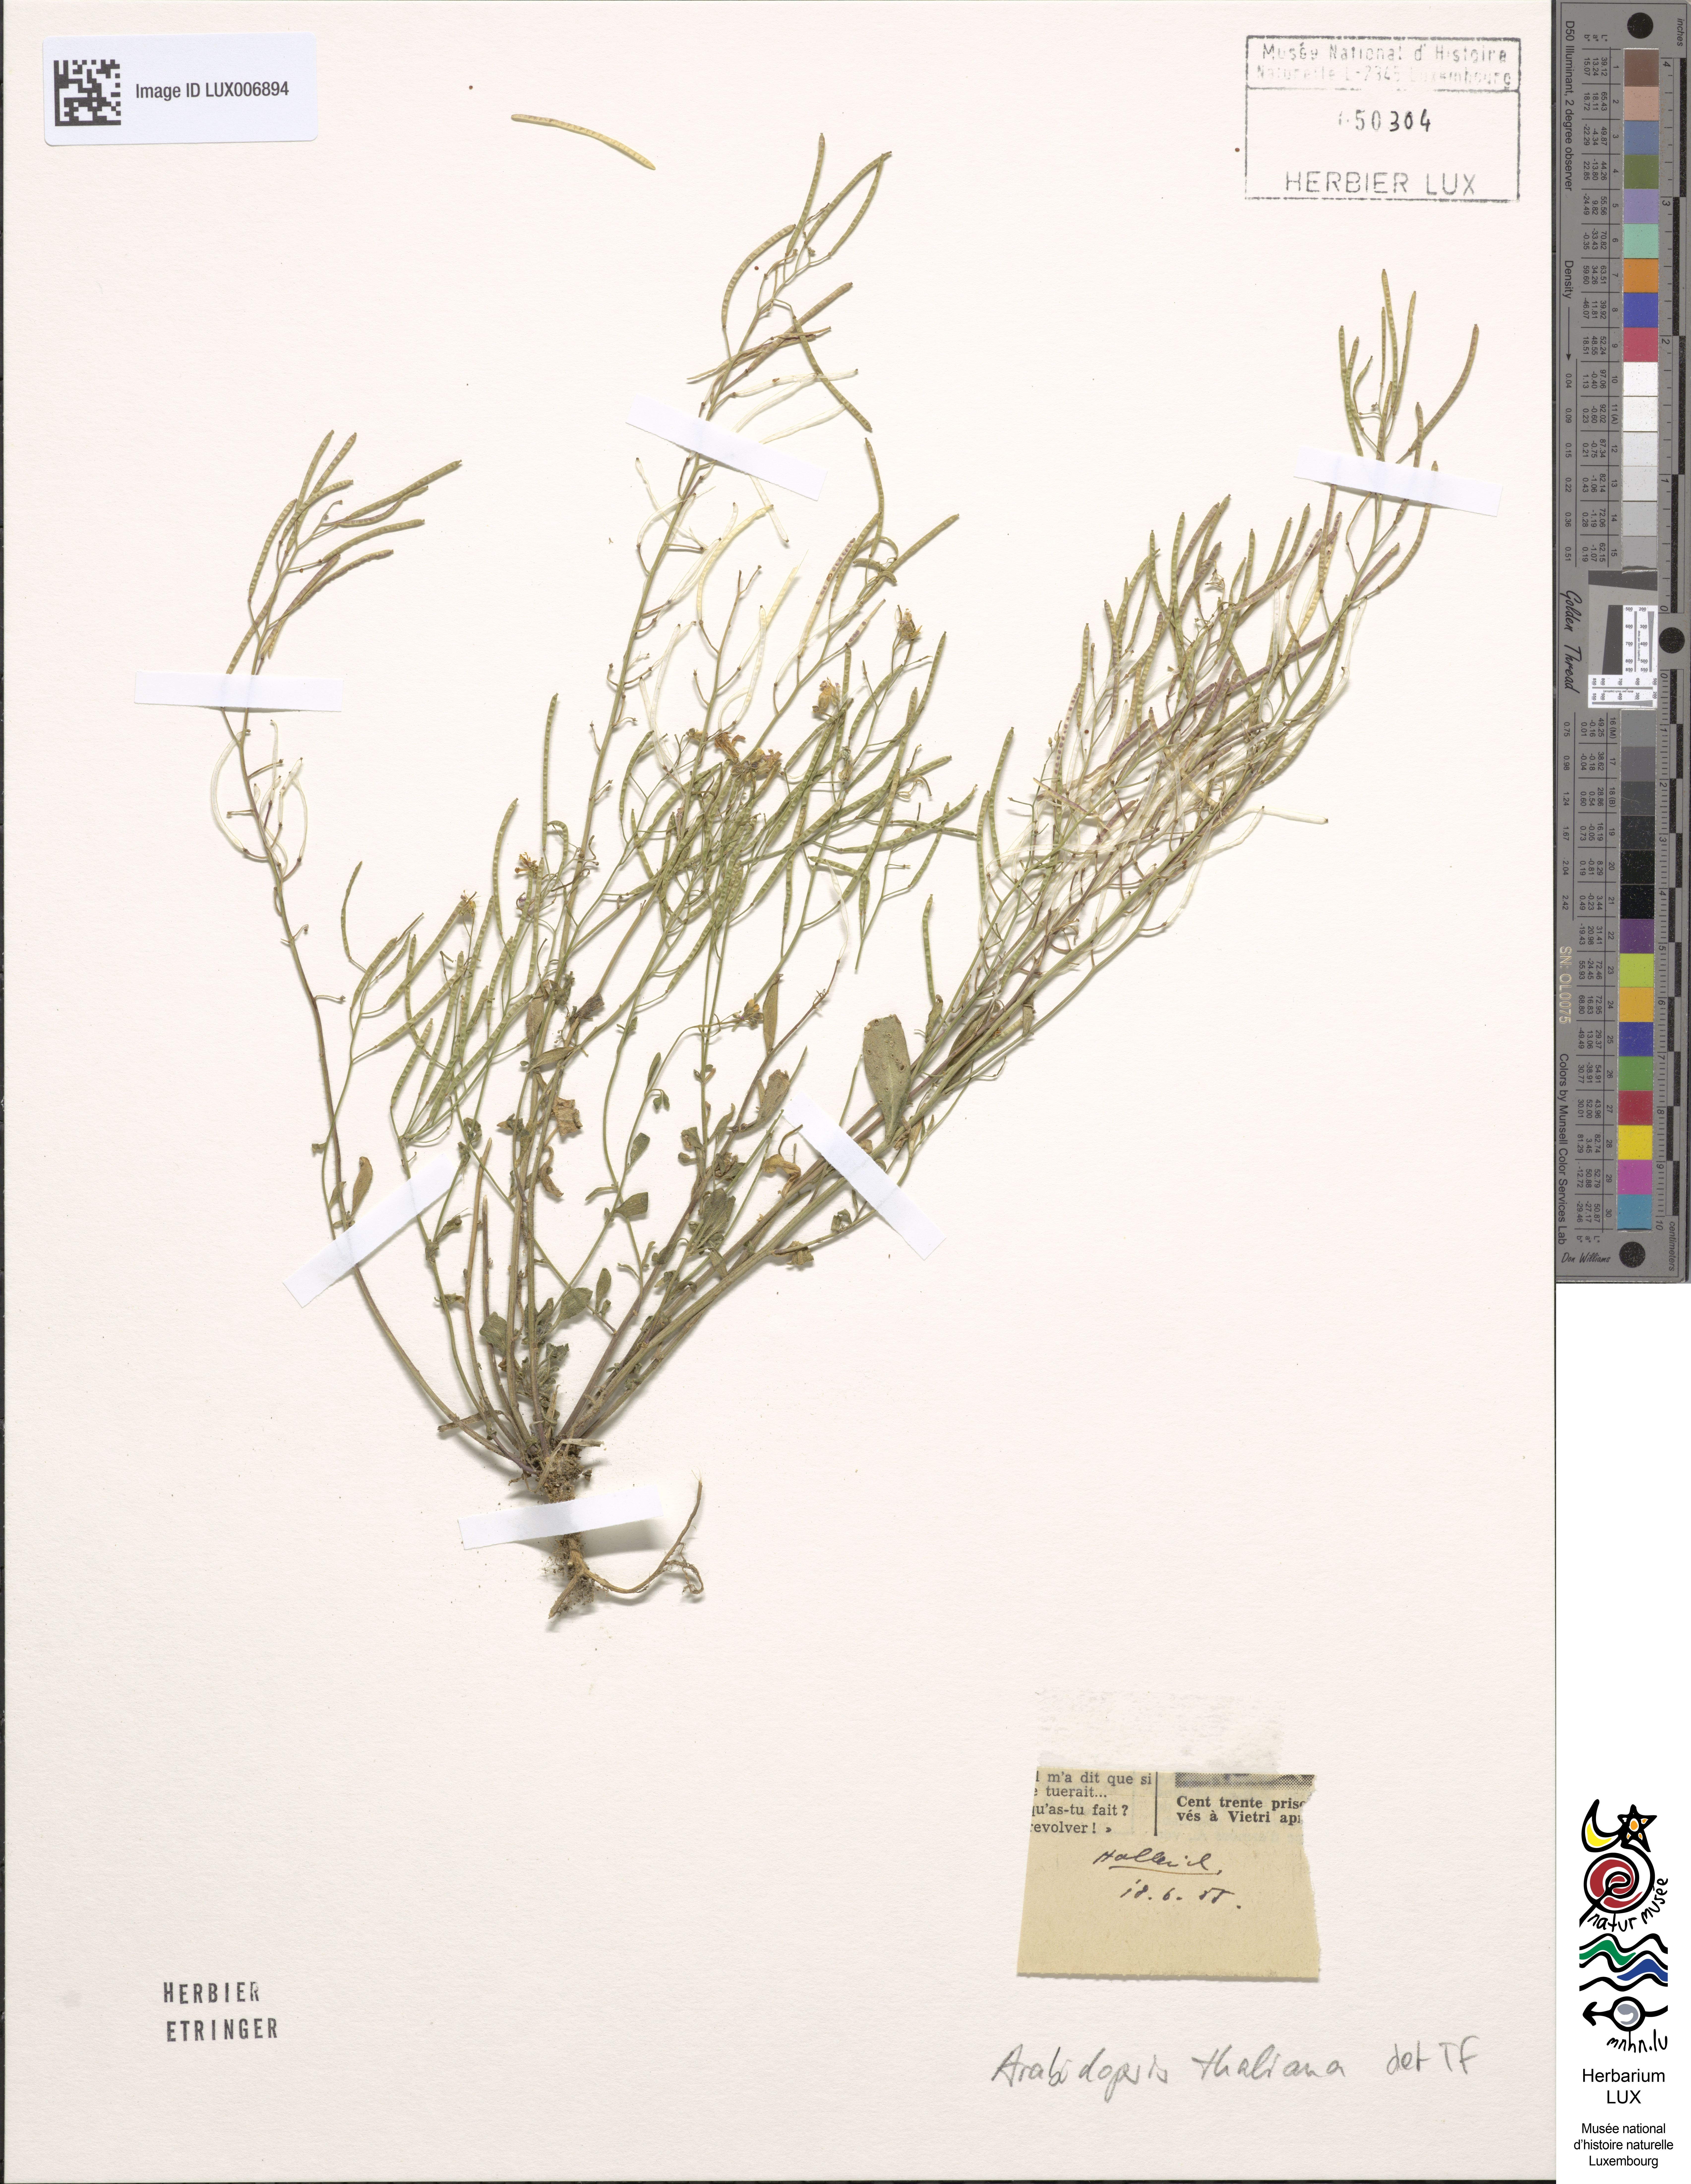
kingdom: Plantae
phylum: Tracheophyta
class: Magnoliopsida
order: Brassicales
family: Brassicaceae
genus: Arabidopsis
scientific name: Arabidopsis thaliana
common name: Thale cress
